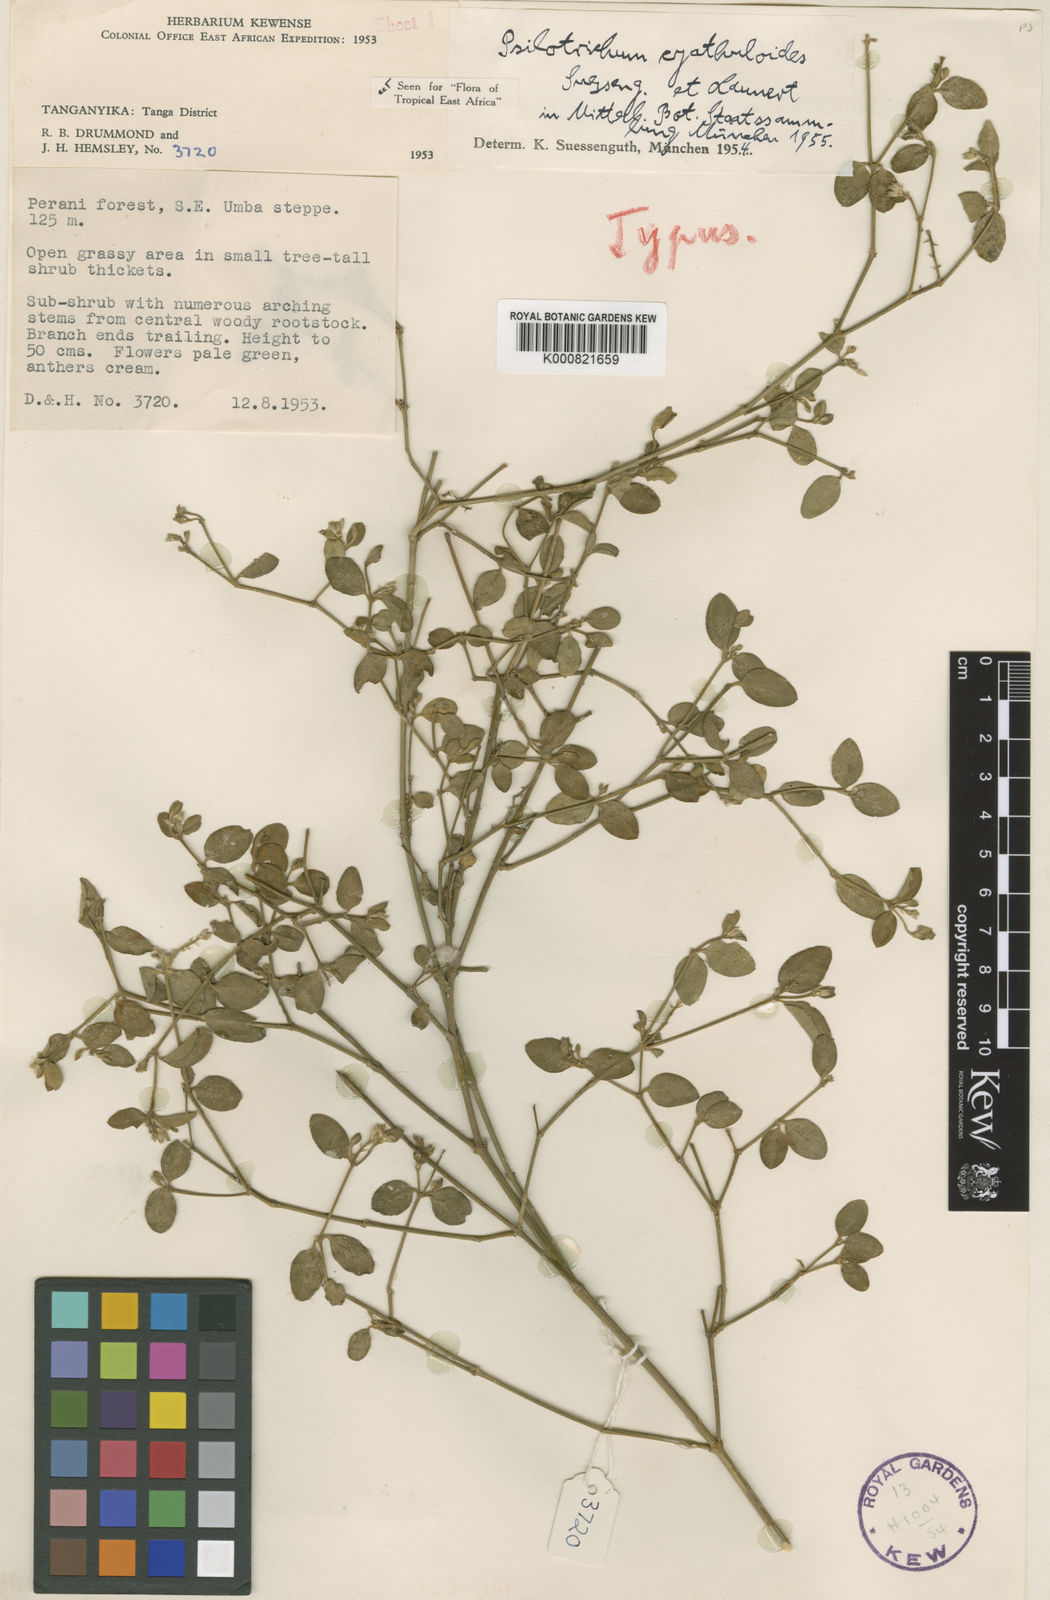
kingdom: Plantae
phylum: Tracheophyta
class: Magnoliopsida
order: Caryophyllales
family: Amaranthaceae
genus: Psilotrichum
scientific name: Psilotrichum cyathuloides
